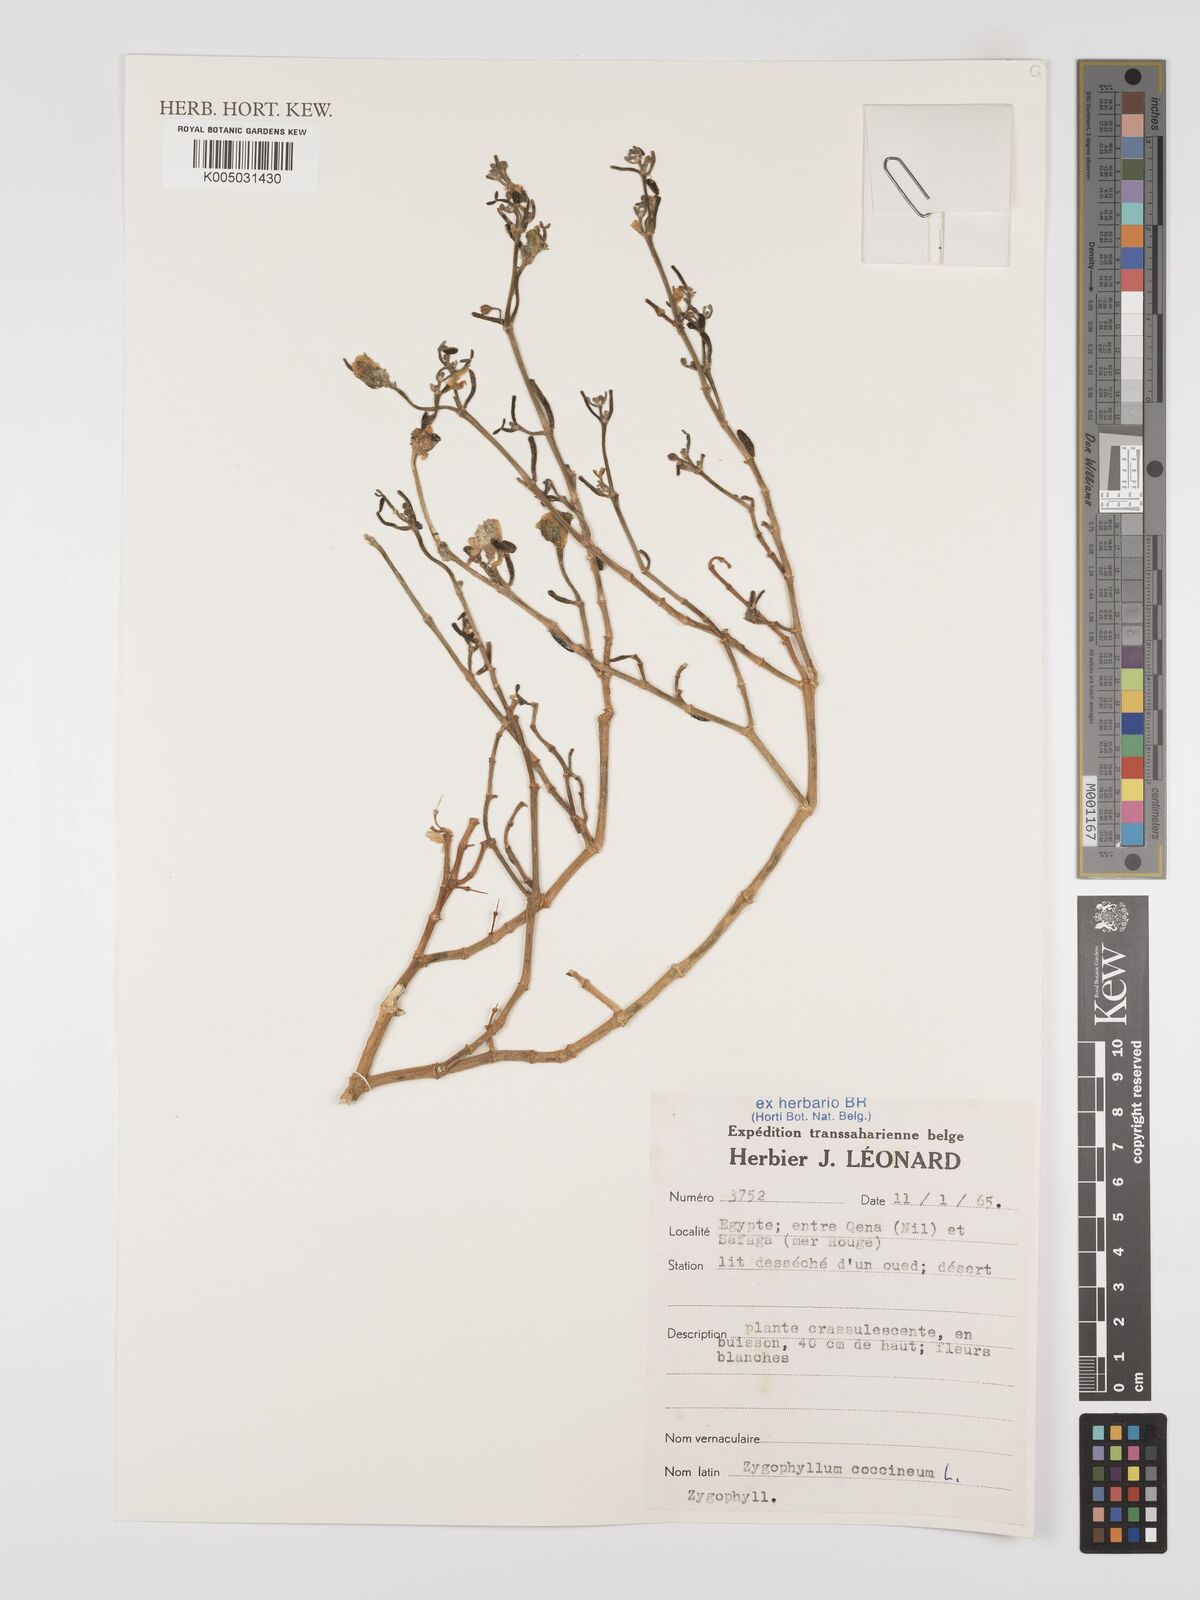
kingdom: Plantae
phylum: Tracheophyta
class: Magnoliopsida
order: Zygophyllales
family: Zygophyllaceae
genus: Zygophyllum
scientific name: Zygophyllum
